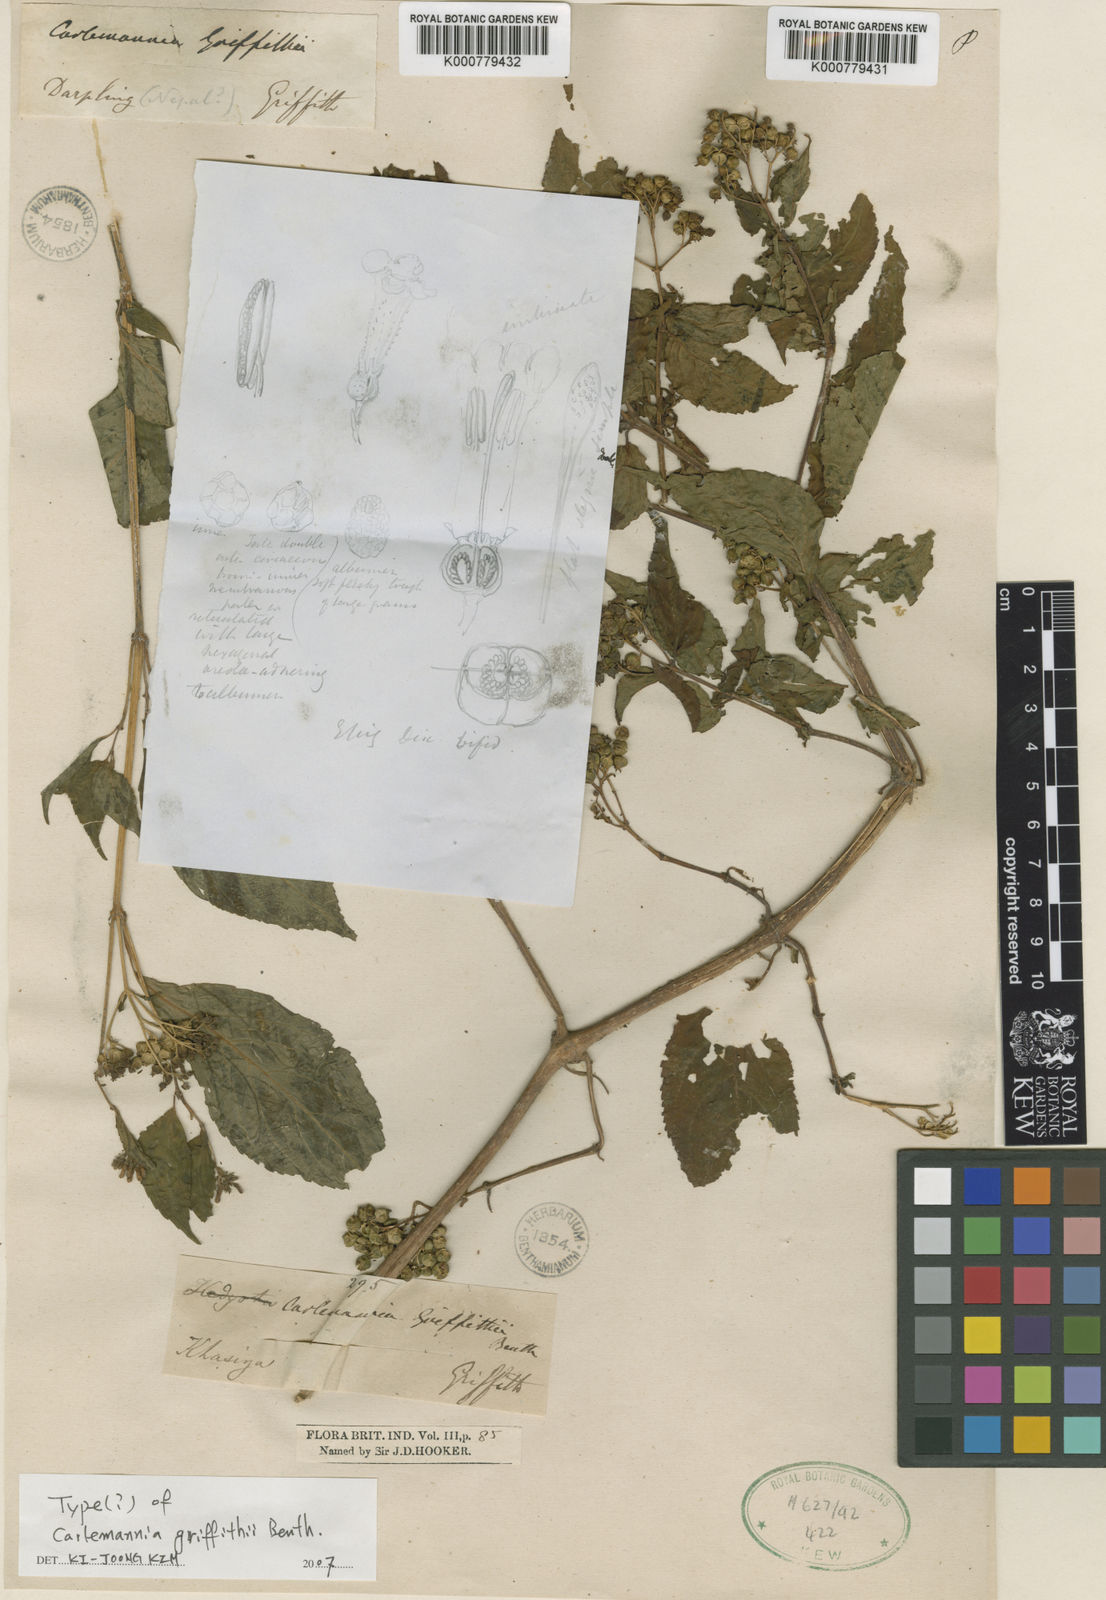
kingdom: Plantae
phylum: Tracheophyta
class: Magnoliopsida
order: Lamiales
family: Carlemanniaceae
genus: Carlemannia
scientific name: Carlemannia griffithii
